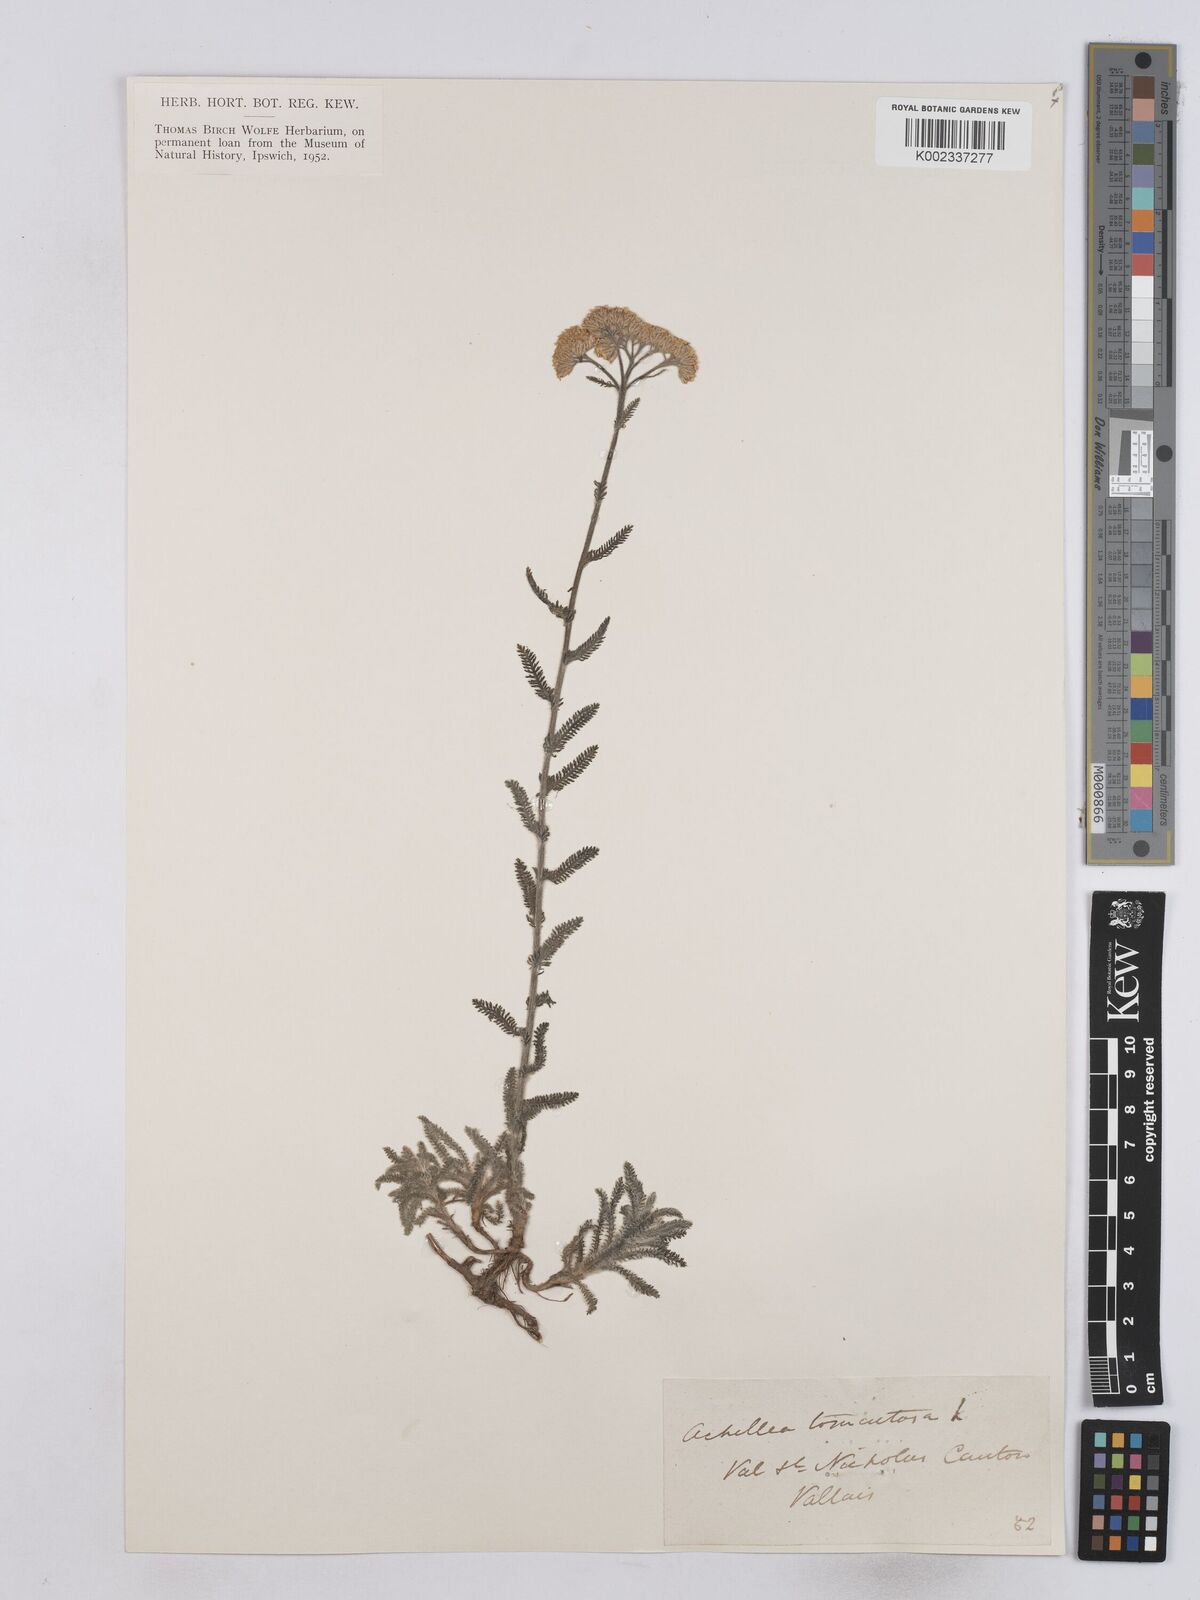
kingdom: Plantae
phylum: Tracheophyta
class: Magnoliopsida
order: Asterales
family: Asteraceae
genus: Achillea
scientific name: Achillea tomentosa
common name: Yellow milfoil
